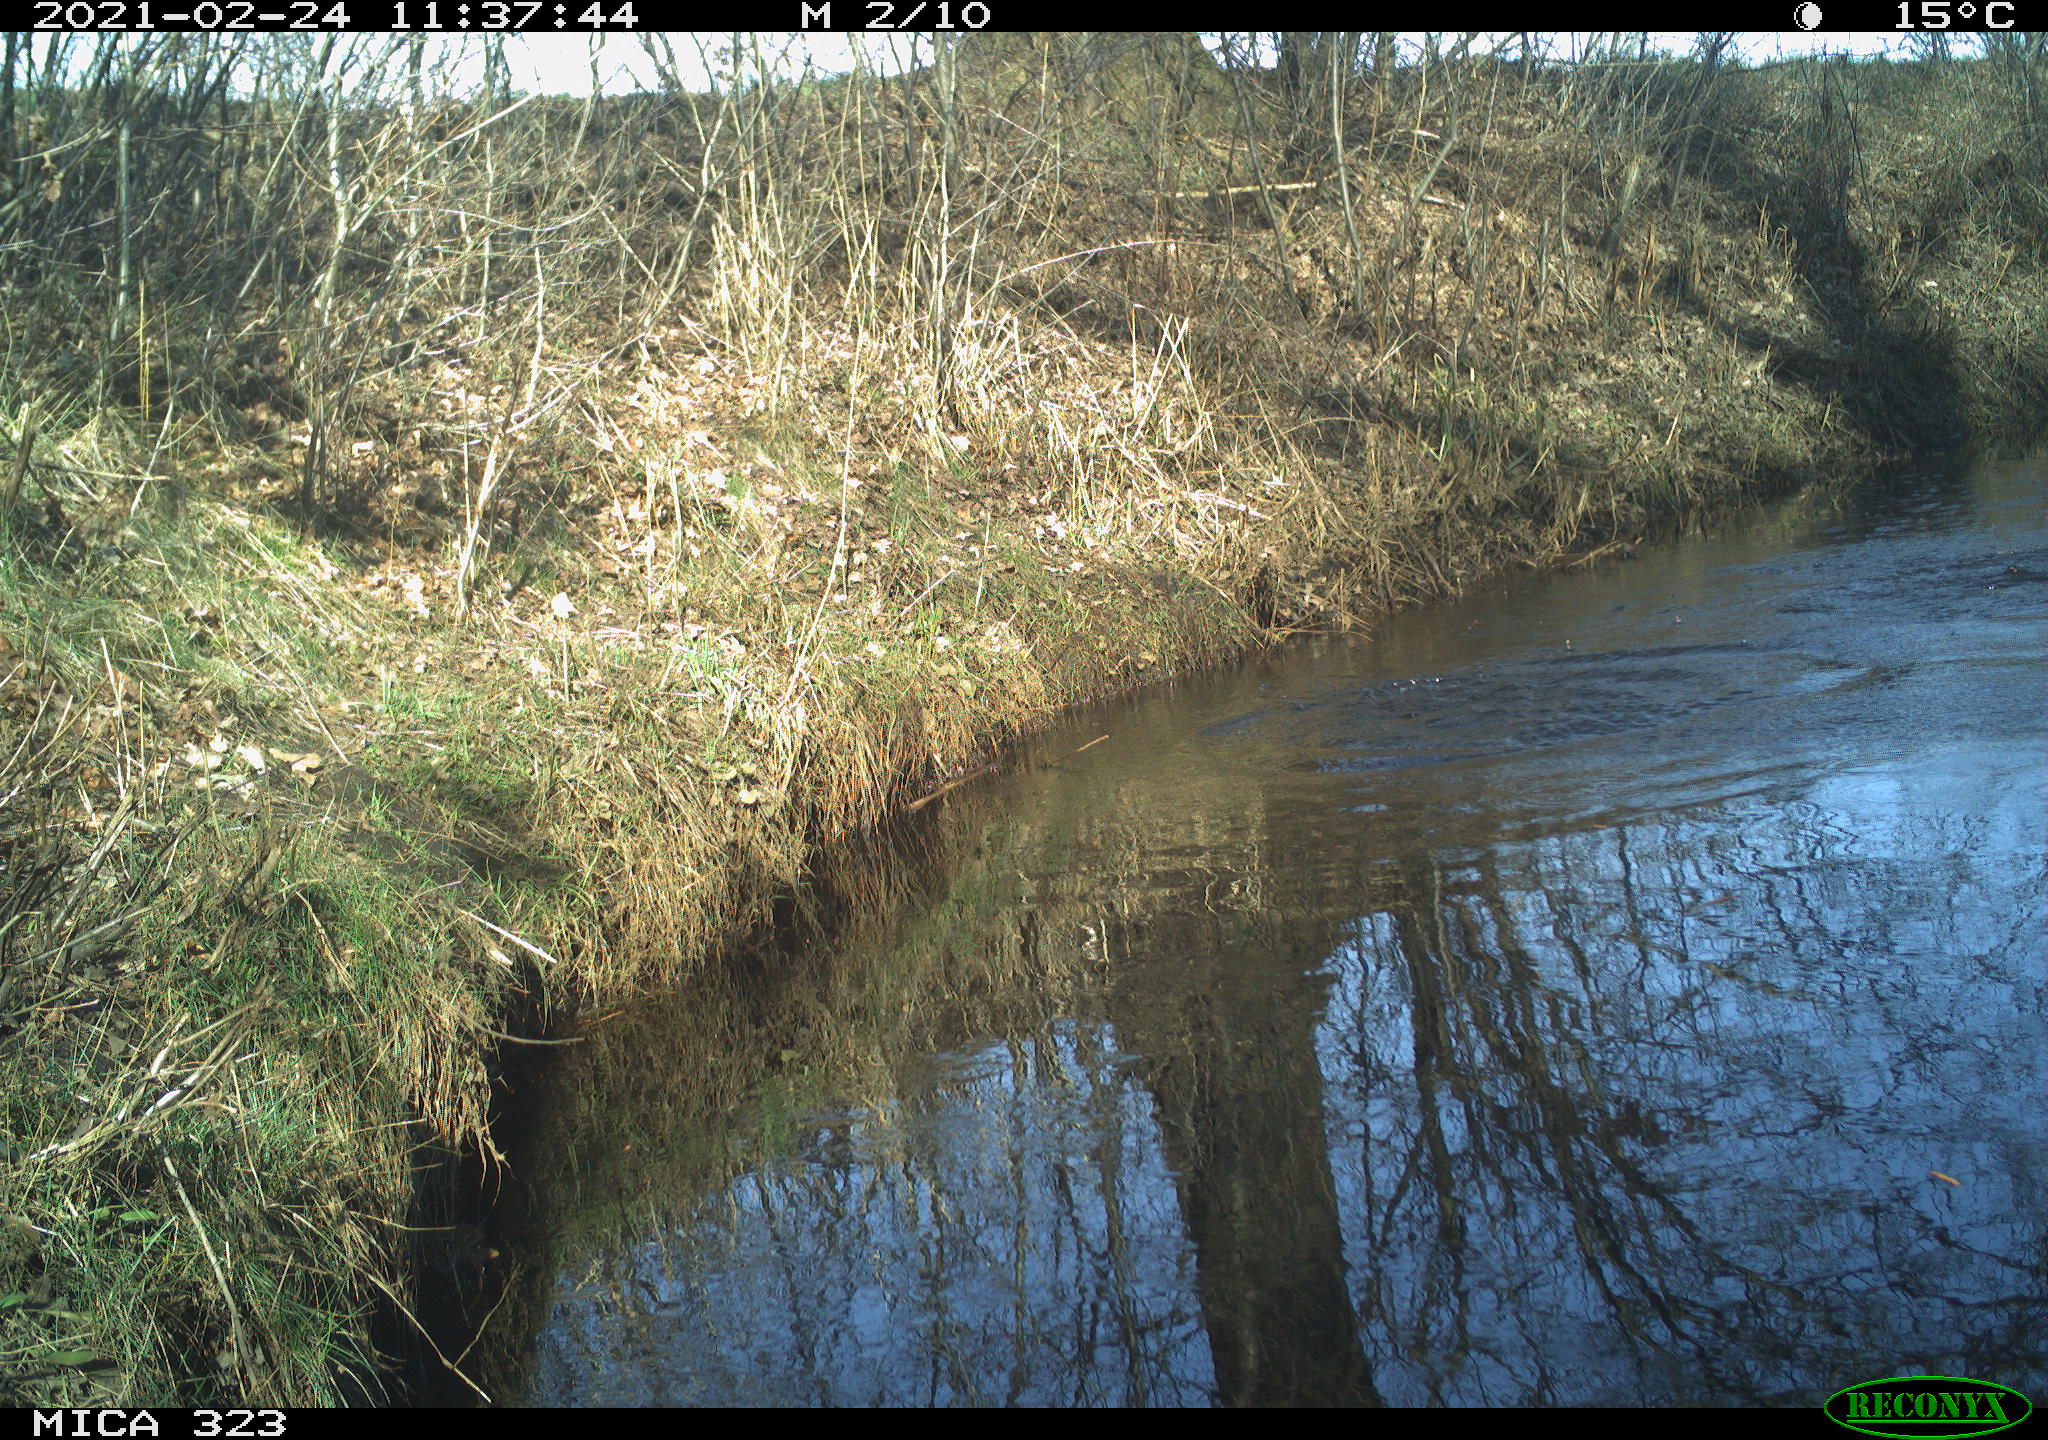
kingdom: Animalia
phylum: Chordata
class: Aves
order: Anseriformes
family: Anatidae
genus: Anas
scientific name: Anas platyrhynchos
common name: Mallard
